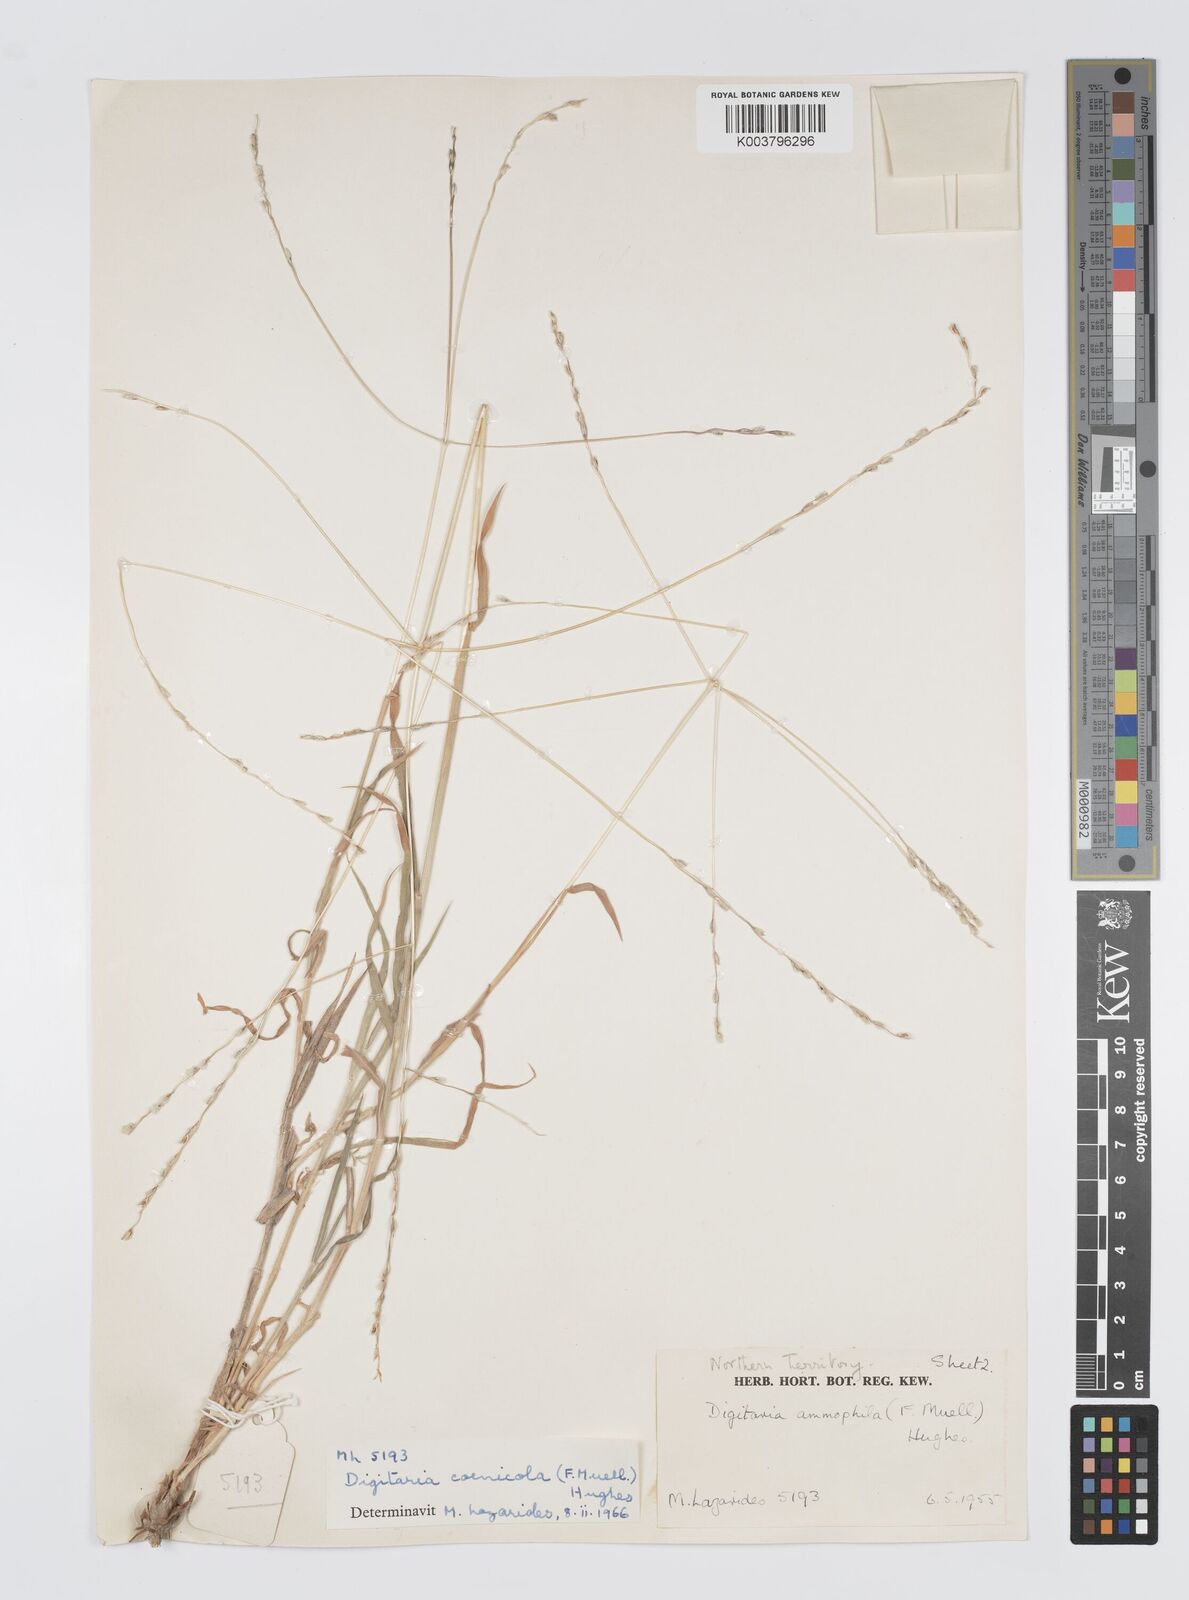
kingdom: Plantae
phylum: Tracheophyta
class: Liliopsida
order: Poales
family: Poaceae
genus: Digitaria
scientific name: Digitaria coenicola
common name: Kanta grass
